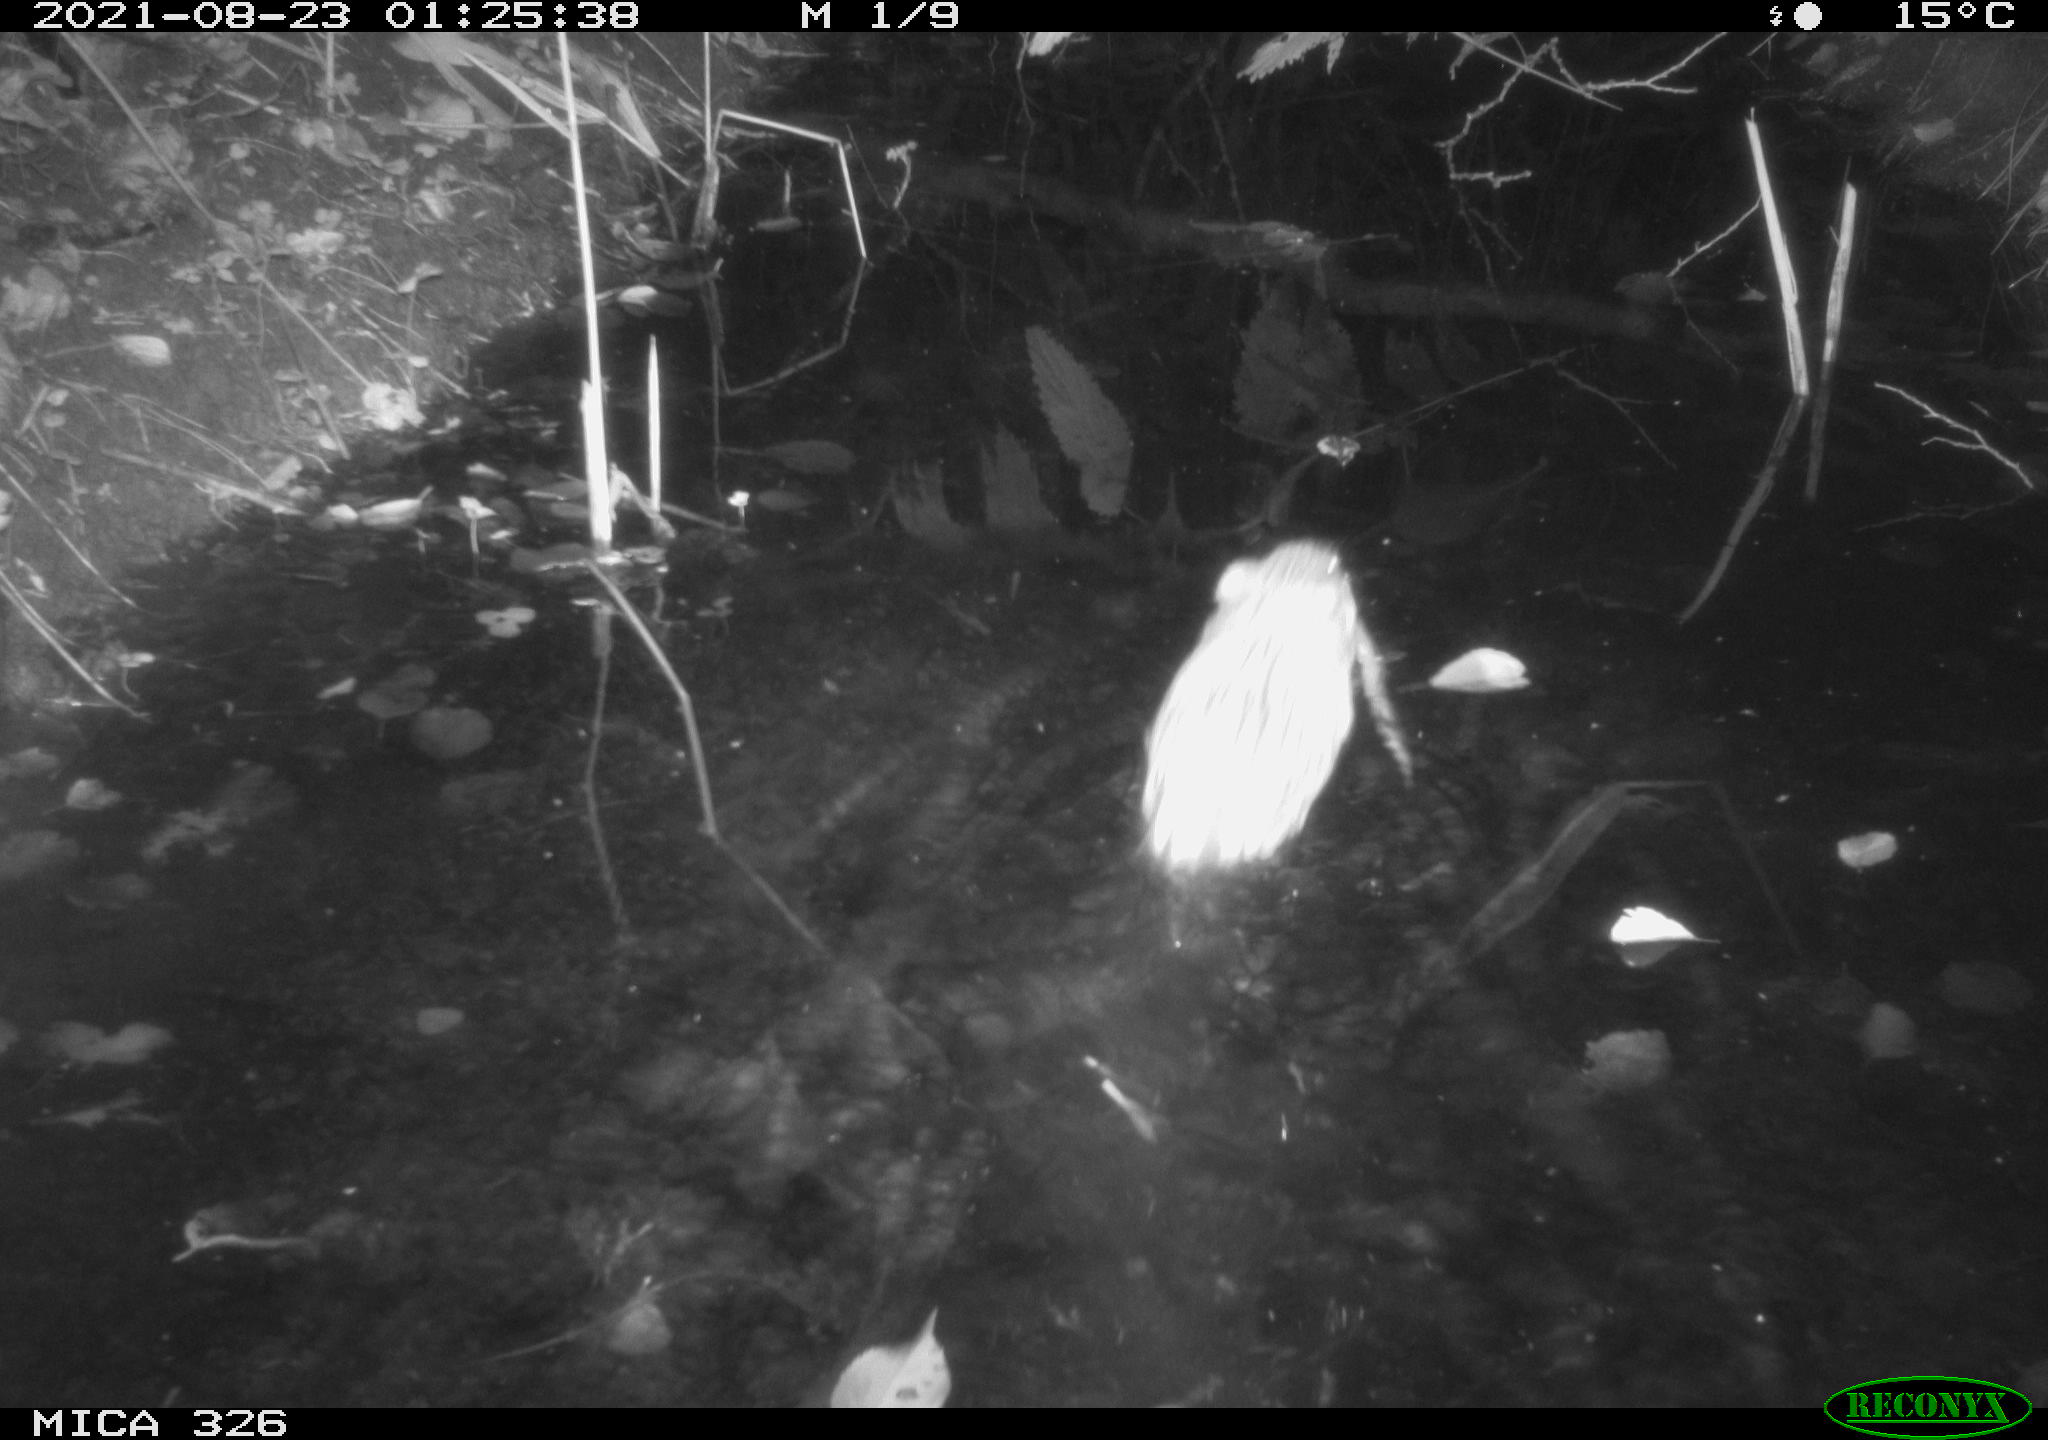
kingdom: Animalia
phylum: Chordata
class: Mammalia
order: Rodentia
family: Cricetidae
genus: Ondatra
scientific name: Ondatra zibethicus
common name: Muskrat
